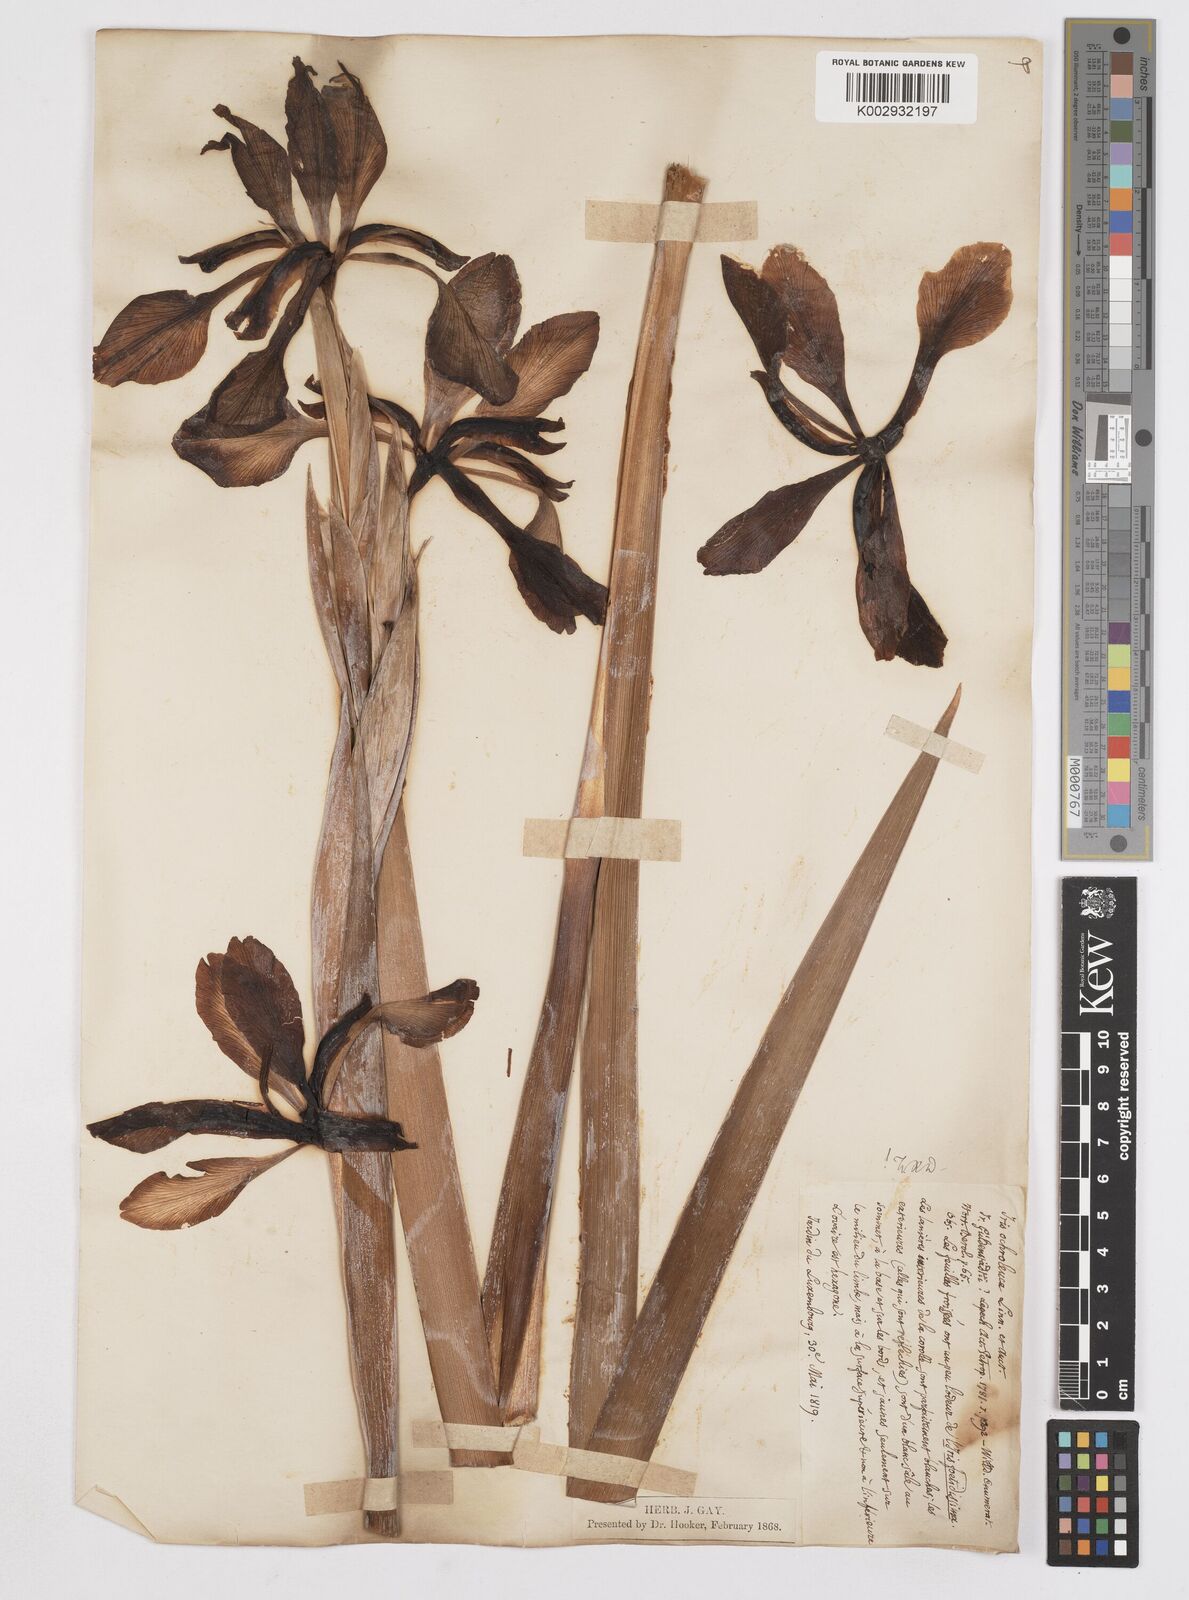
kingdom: Plantae
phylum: Tracheophyta
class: Liliopsida
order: Asparagales
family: Iridaceae
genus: Iris
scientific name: Iris orientalis
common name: Turkish iris
